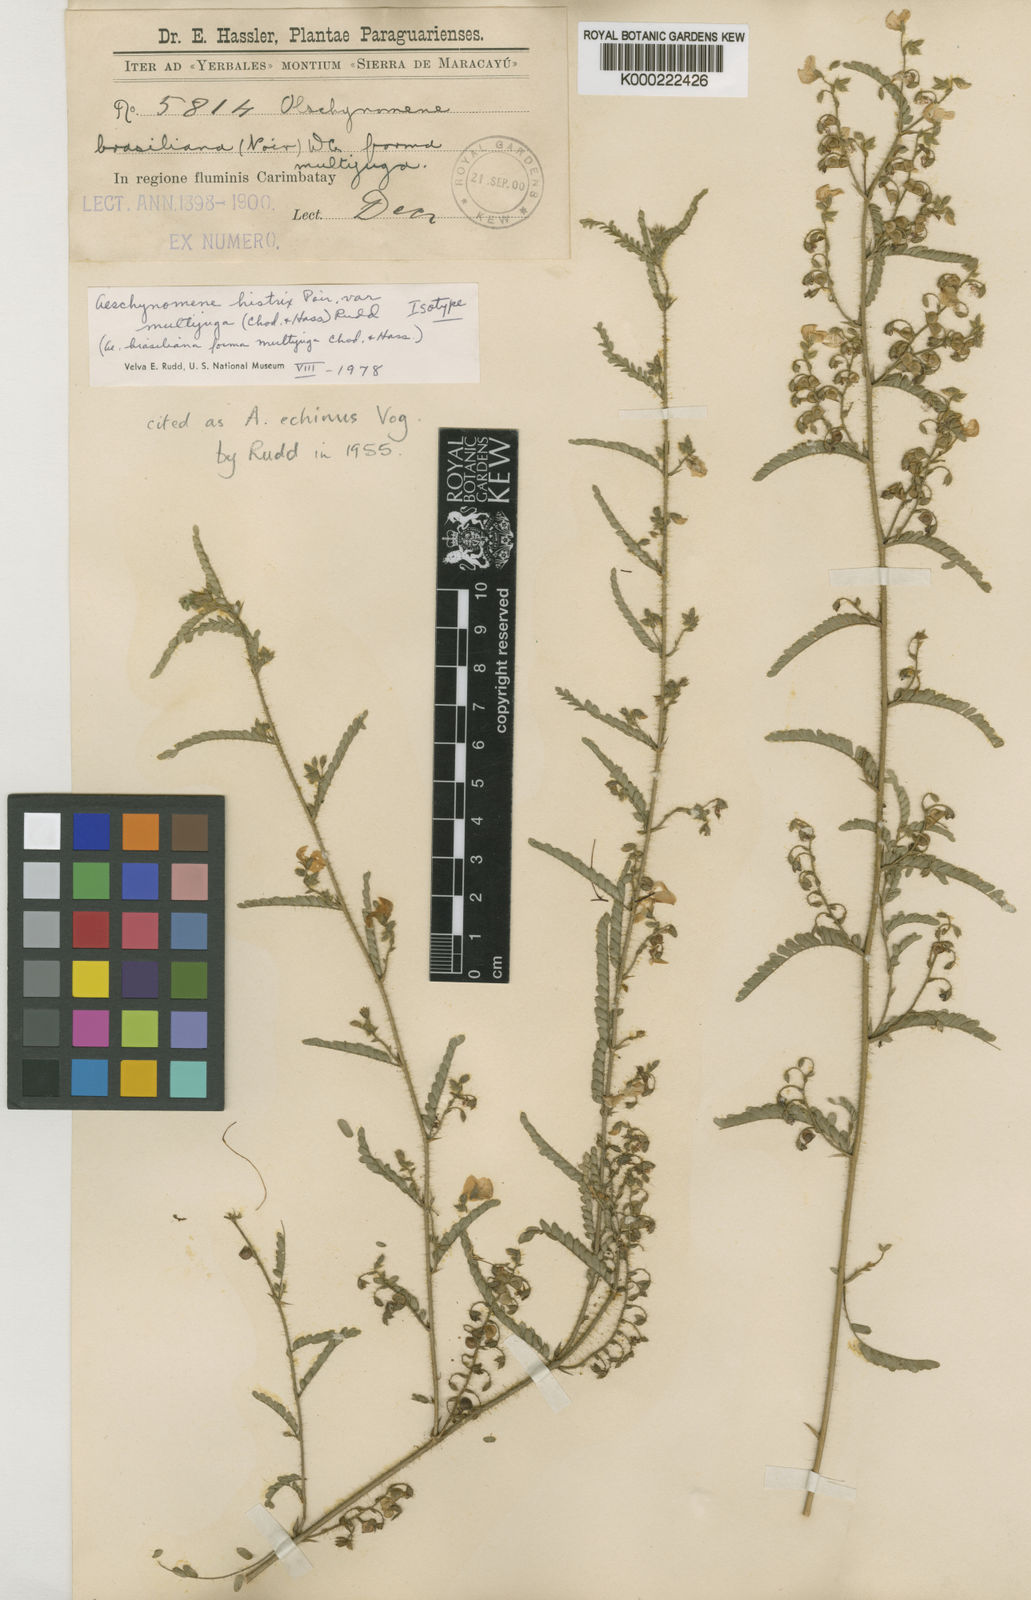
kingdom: Plantae
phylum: Tracheophyta
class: Magnoliopsida
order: Fabales
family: Fabaceae
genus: Ctenodon
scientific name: Ctenodon histrix
